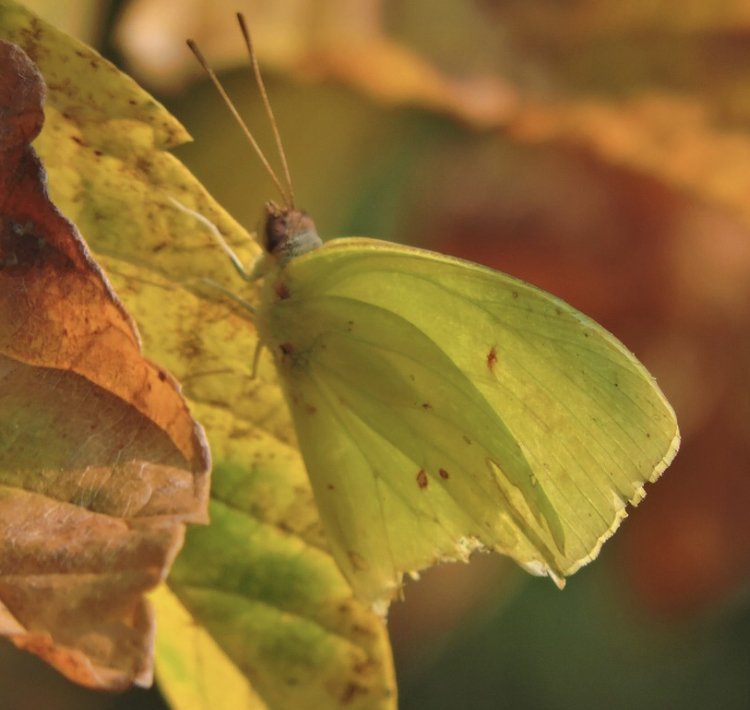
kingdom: Animalia
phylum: Arthropoda
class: Insecta
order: Lepidoptera
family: Pieridae
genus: Phoebis
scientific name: Phoebis sennae
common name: Cloudless Sulphur
